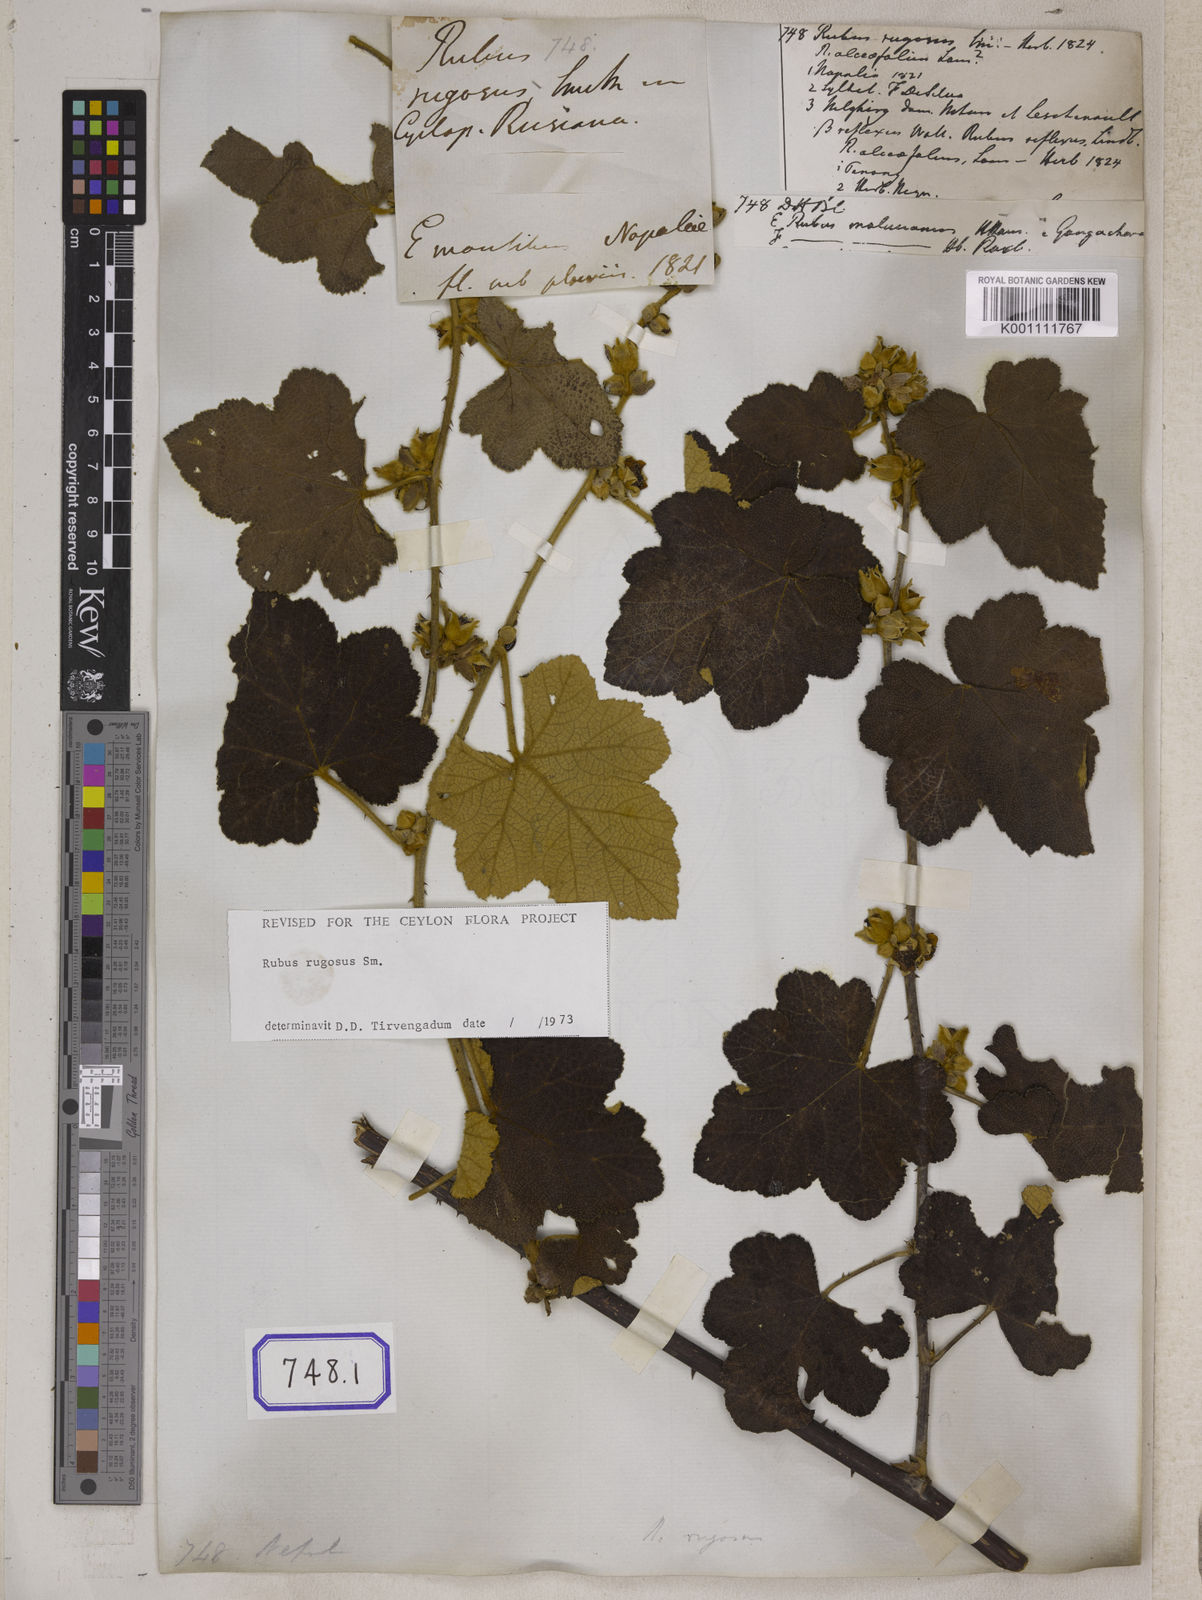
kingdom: Plantae
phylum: Tracheophyta
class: Magnoliopsida
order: Rosales
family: Rosaceae
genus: Rubus
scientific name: Rubus
